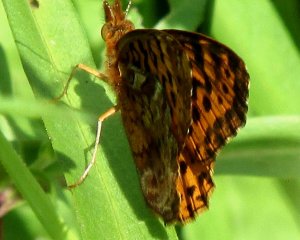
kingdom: Animalia
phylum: Arthropoda
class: Insecta
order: Lepidoptera
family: Nymphalidae
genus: Speyeria
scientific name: Speyeria aphrodite
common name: Aphrodite Fritillary
